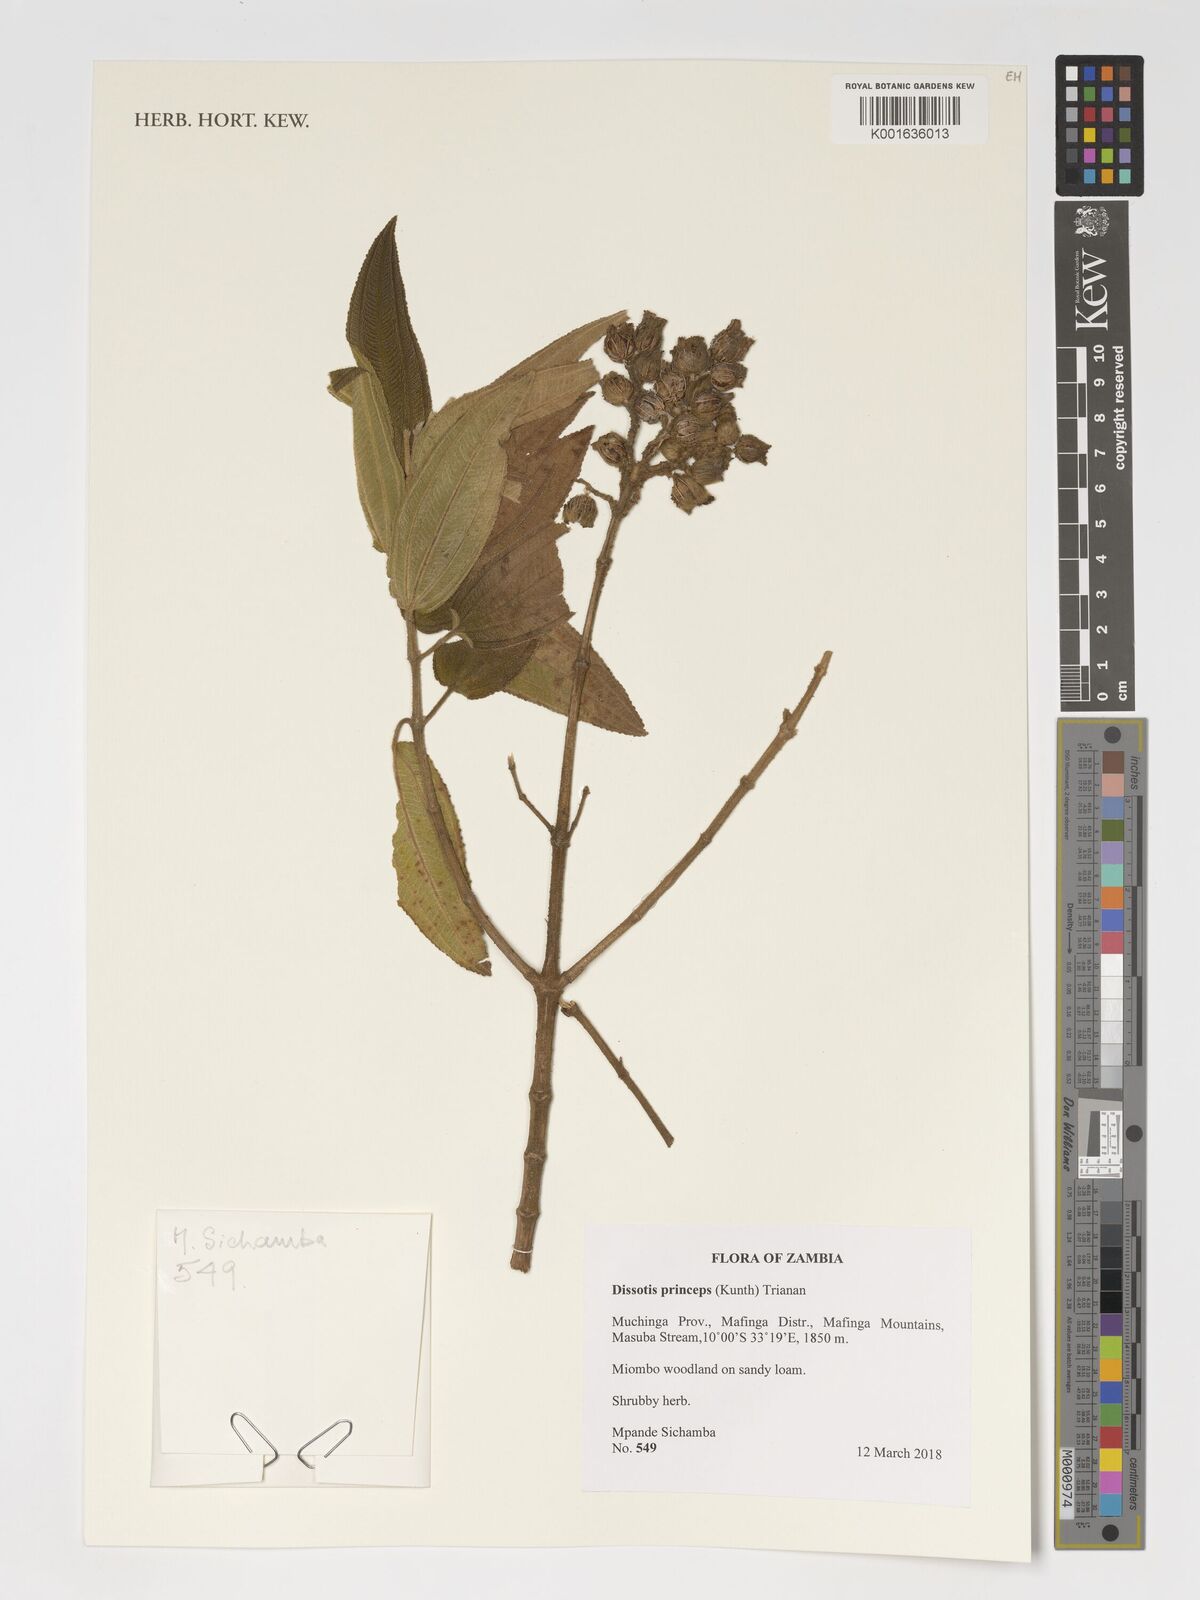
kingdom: Plantae
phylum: Tracheophyta
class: Magnoliopsida
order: Myrtales
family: Melastomataceae
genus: Rosettea
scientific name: Rosettea princeps
